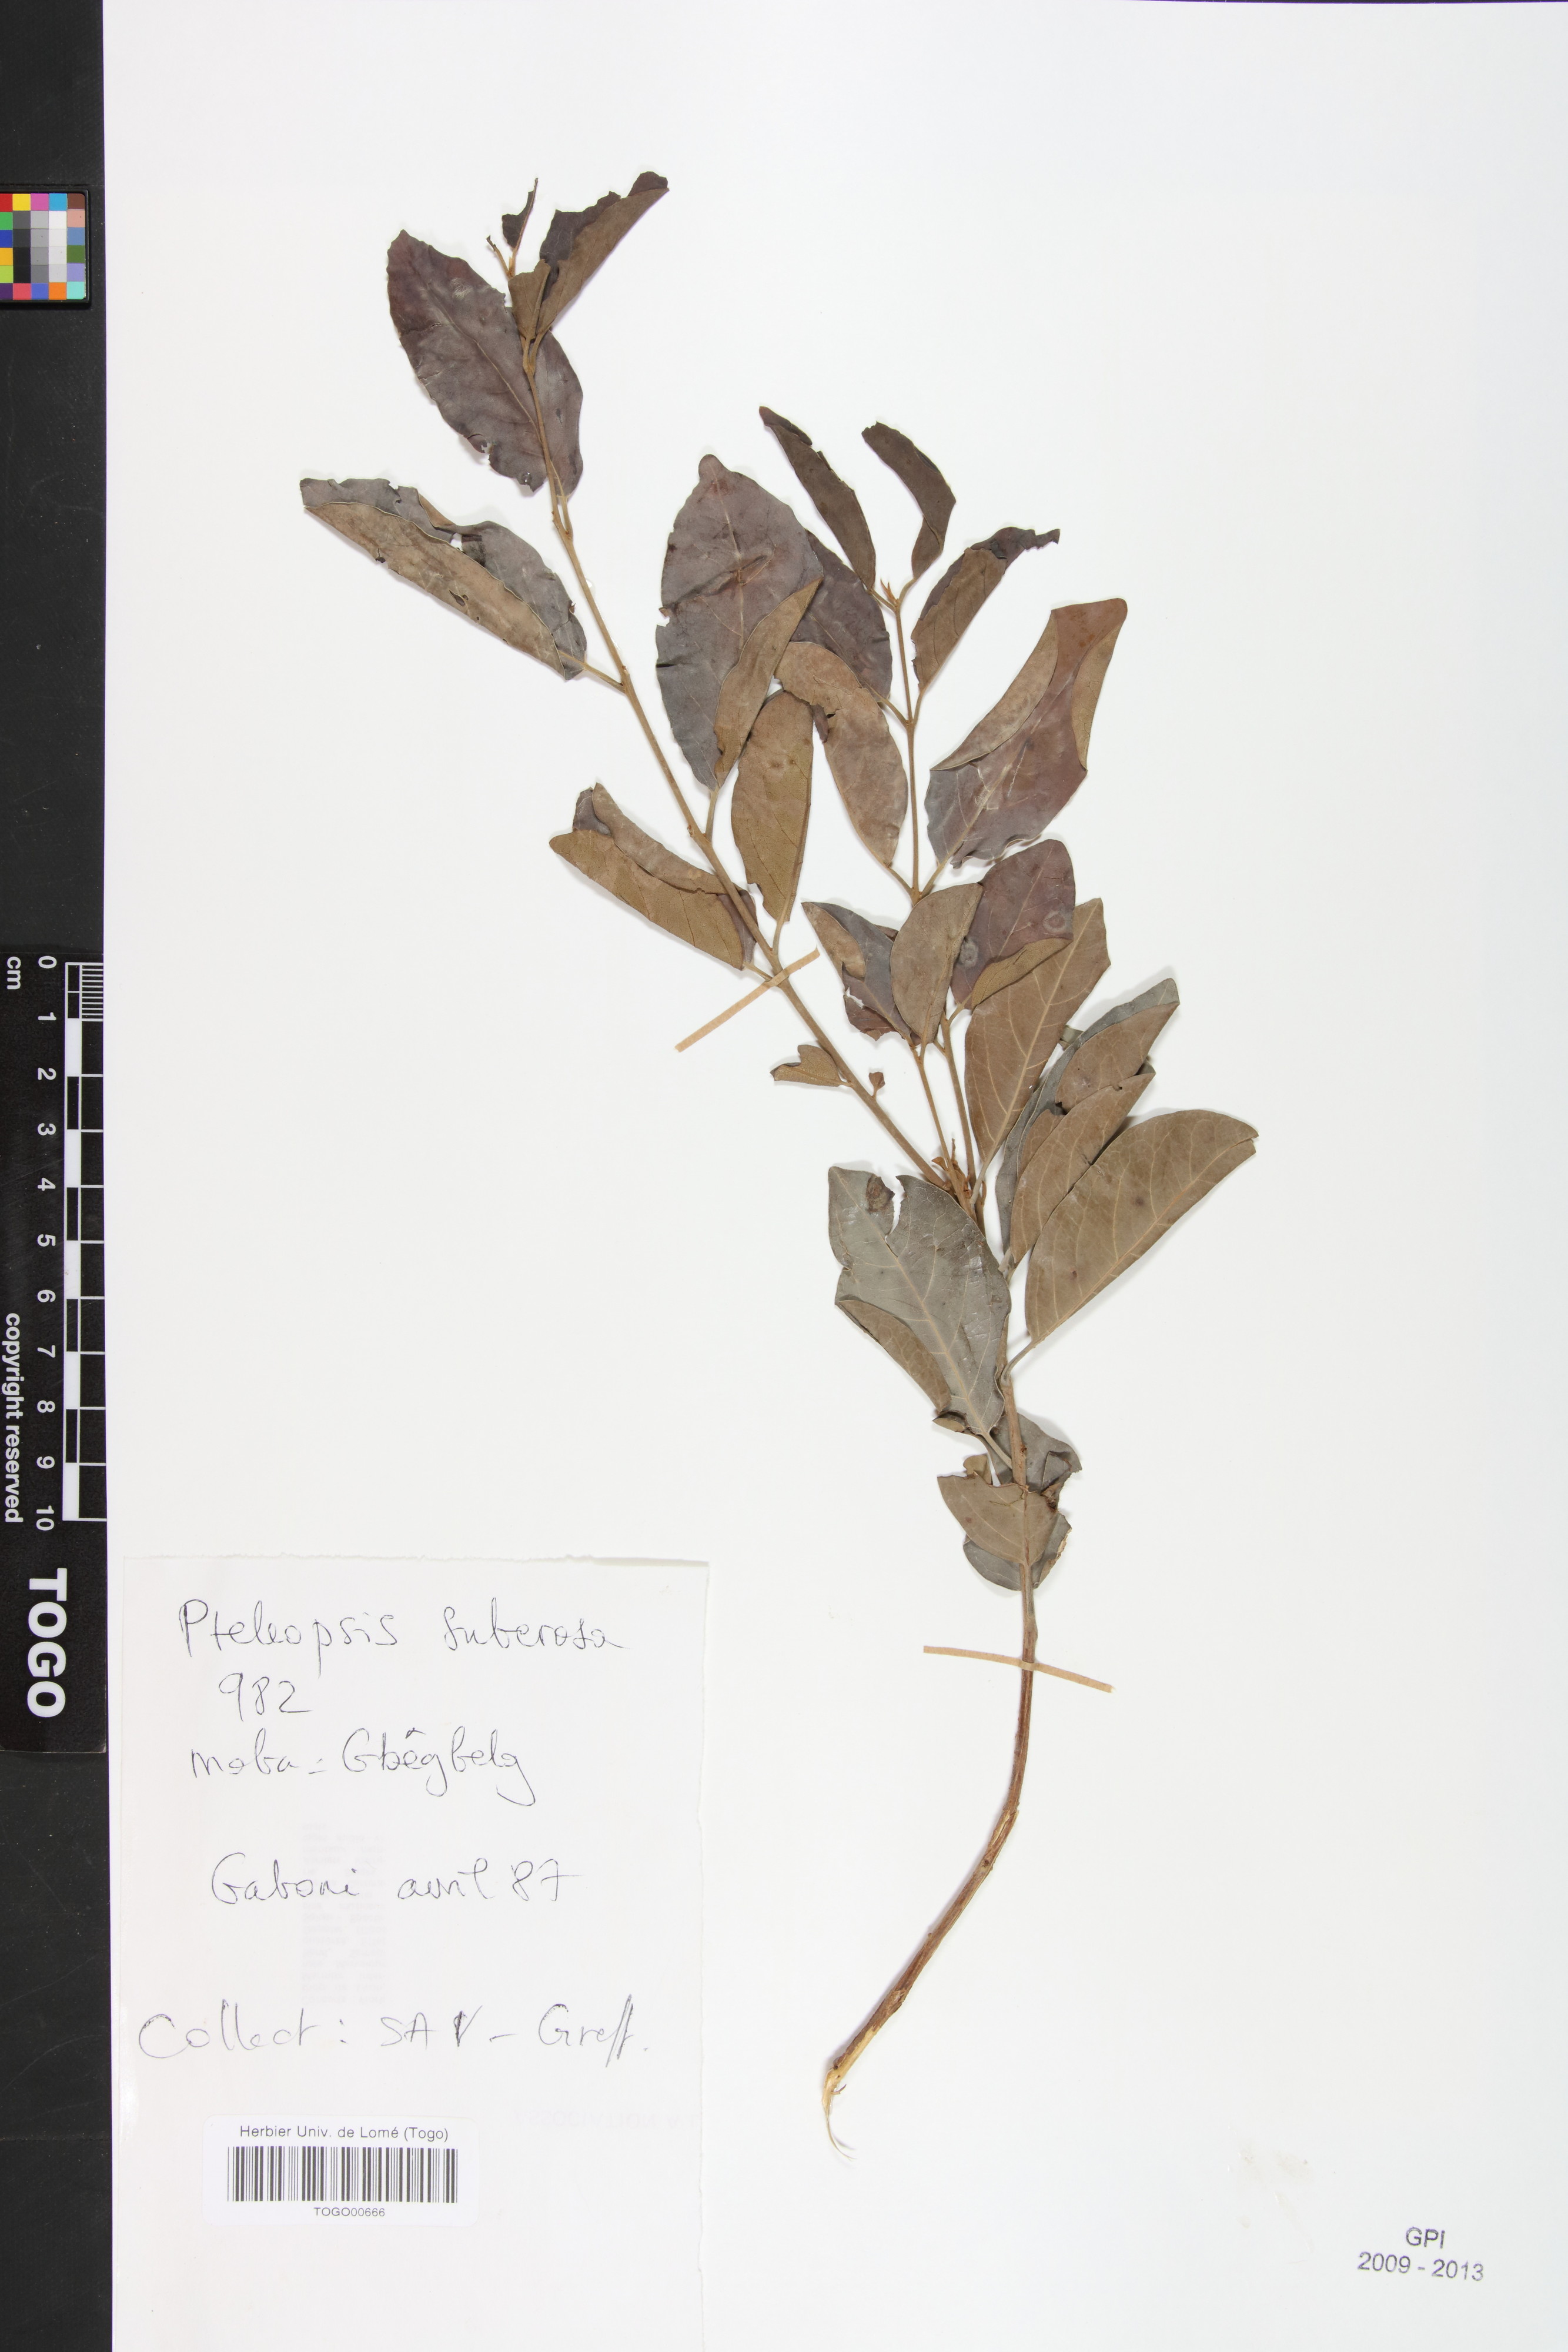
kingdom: Plantae
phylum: Tracheophyta
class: Magnoliopsida
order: Myrtales
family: Combretaceae
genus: Terminalia
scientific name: Terminalia engleri
